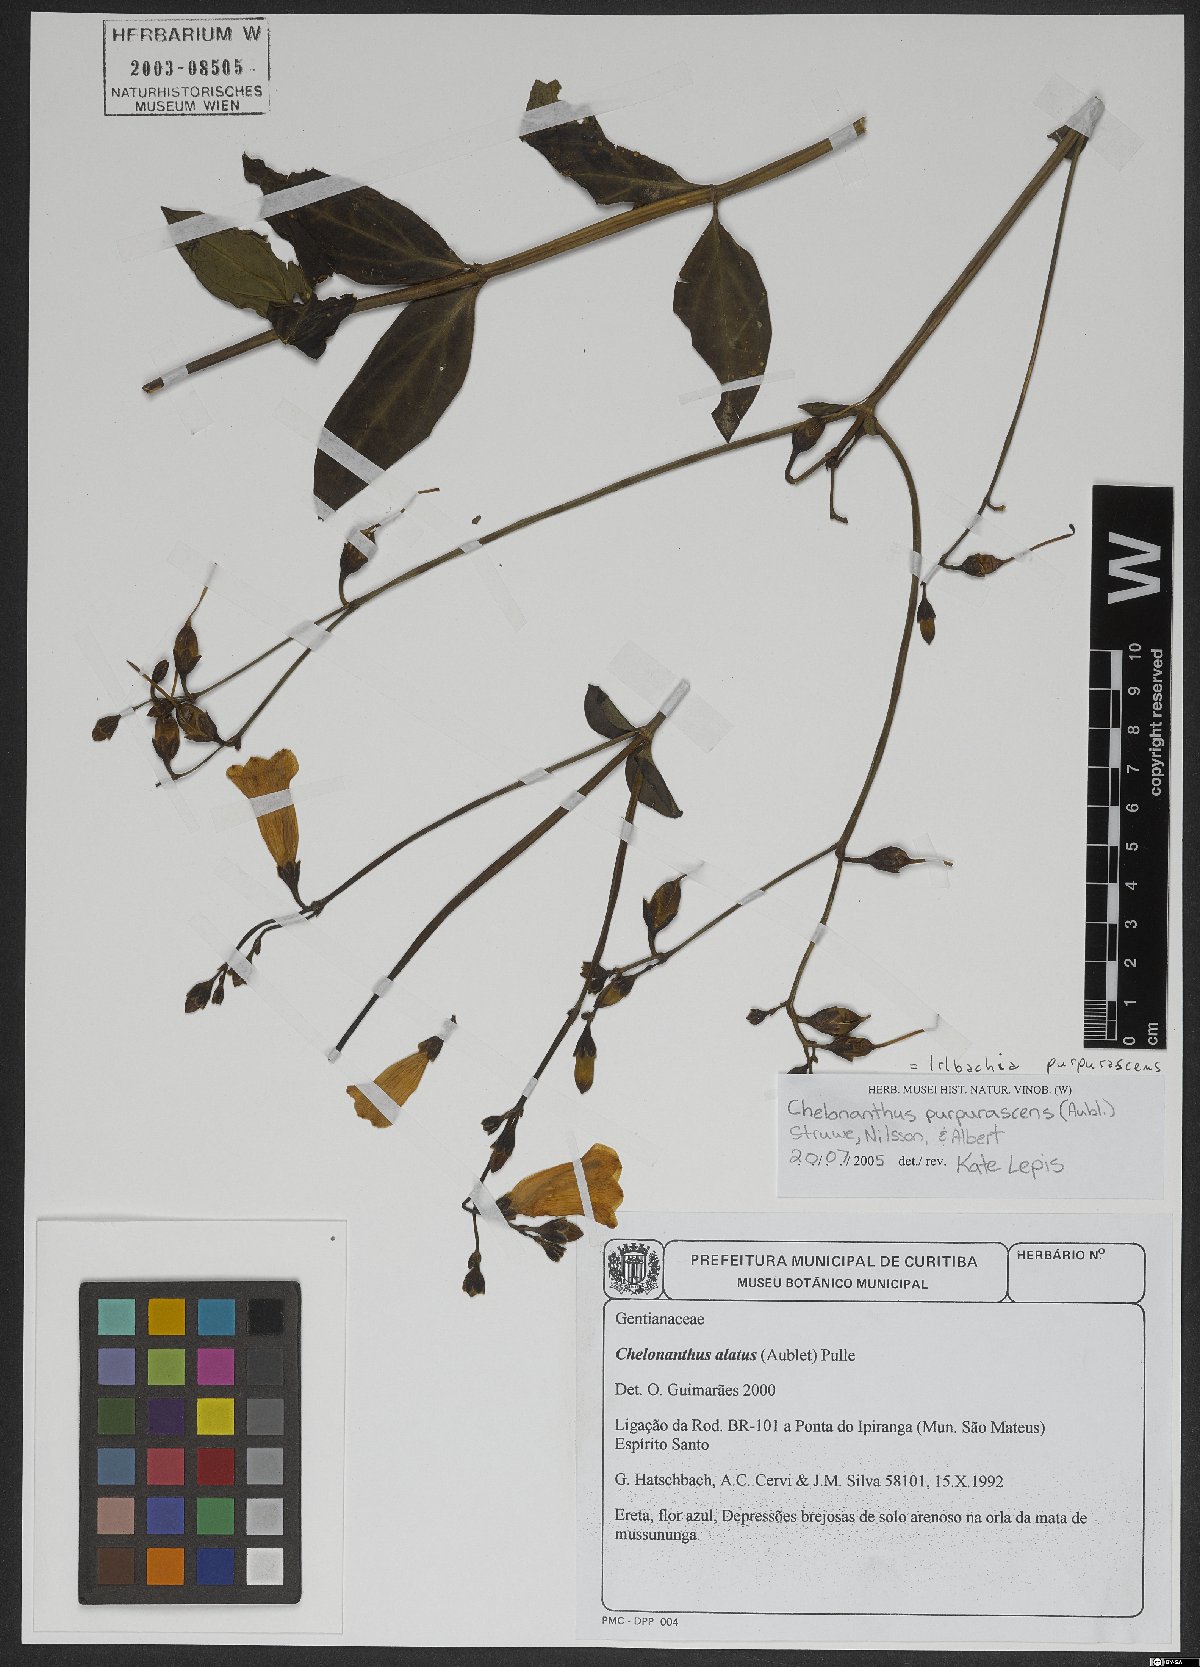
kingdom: Plantae
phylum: Tracheophyta
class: Magnoliopsida
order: Gentianales
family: Gentianaceae
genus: Chelonanthus
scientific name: Chelonanthus purpurascens
